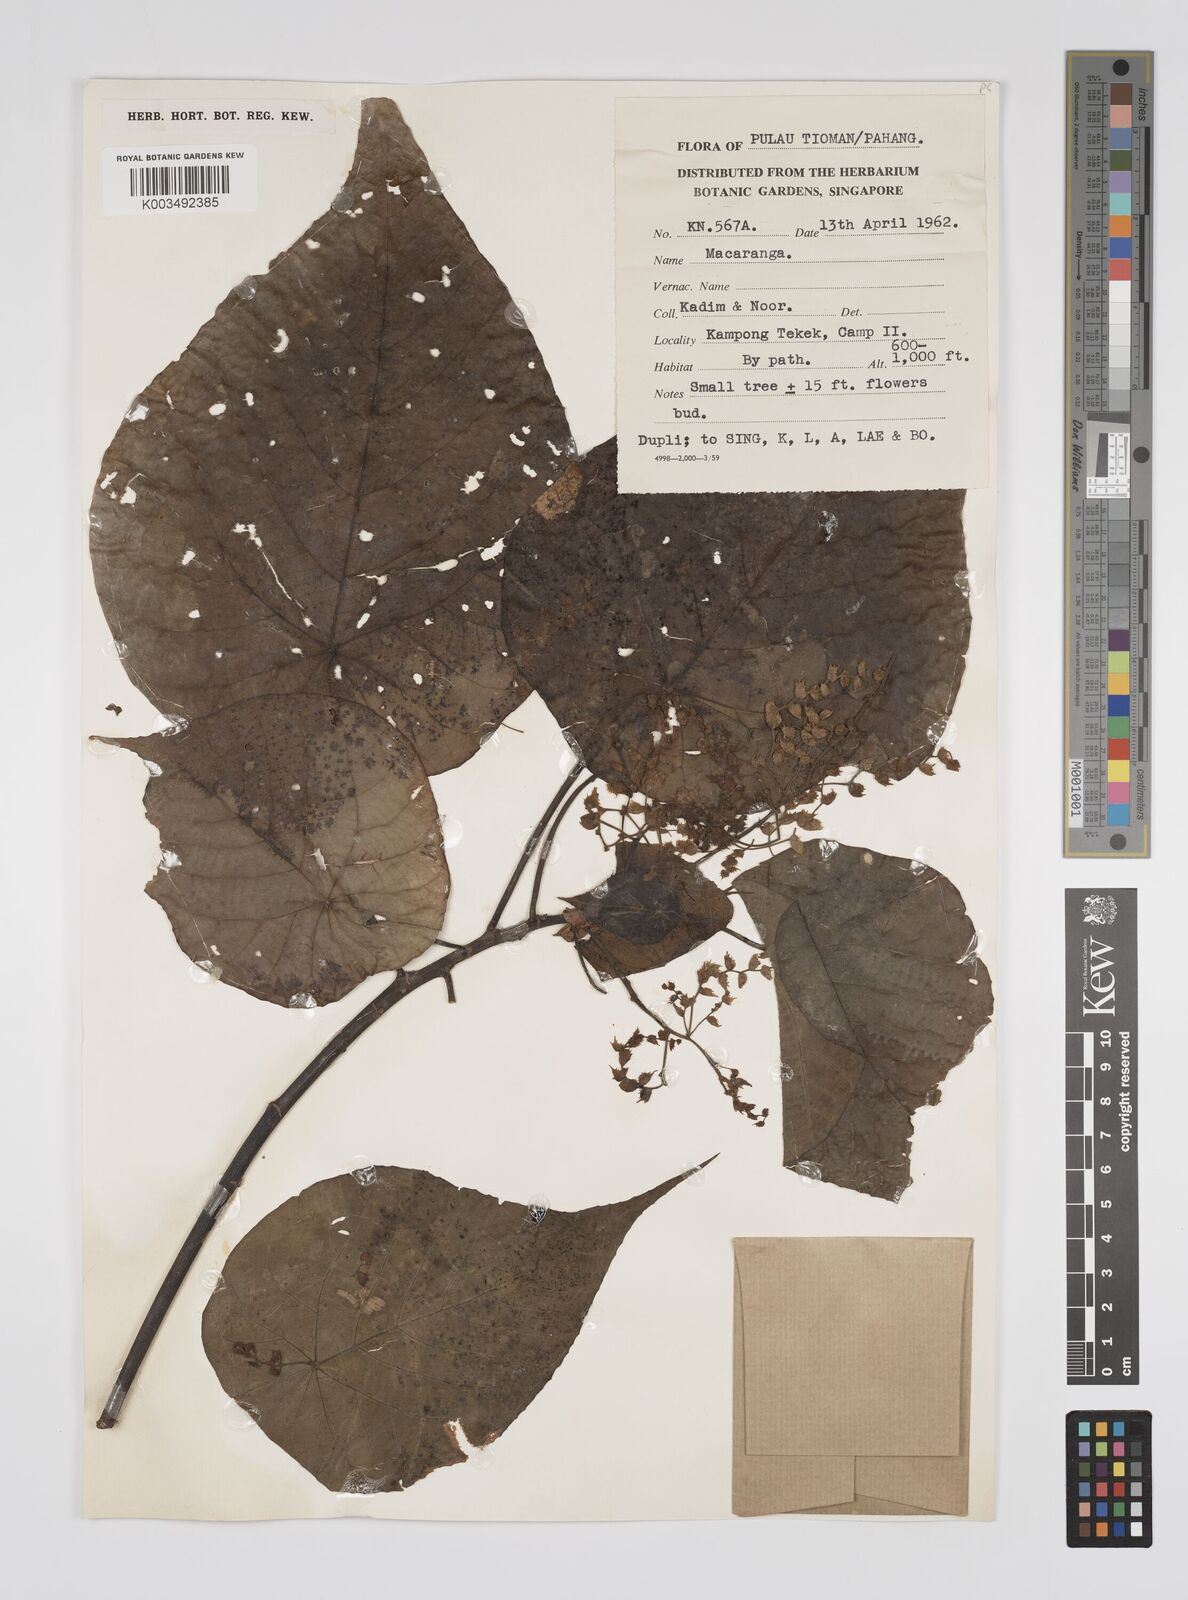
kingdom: Plantae
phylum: Tracheophyta
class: Magnoliopsida
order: Malpighiales
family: Euphorbiaceae
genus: Macaranga
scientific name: Macaranga tanarius
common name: Parasol leaf tree
